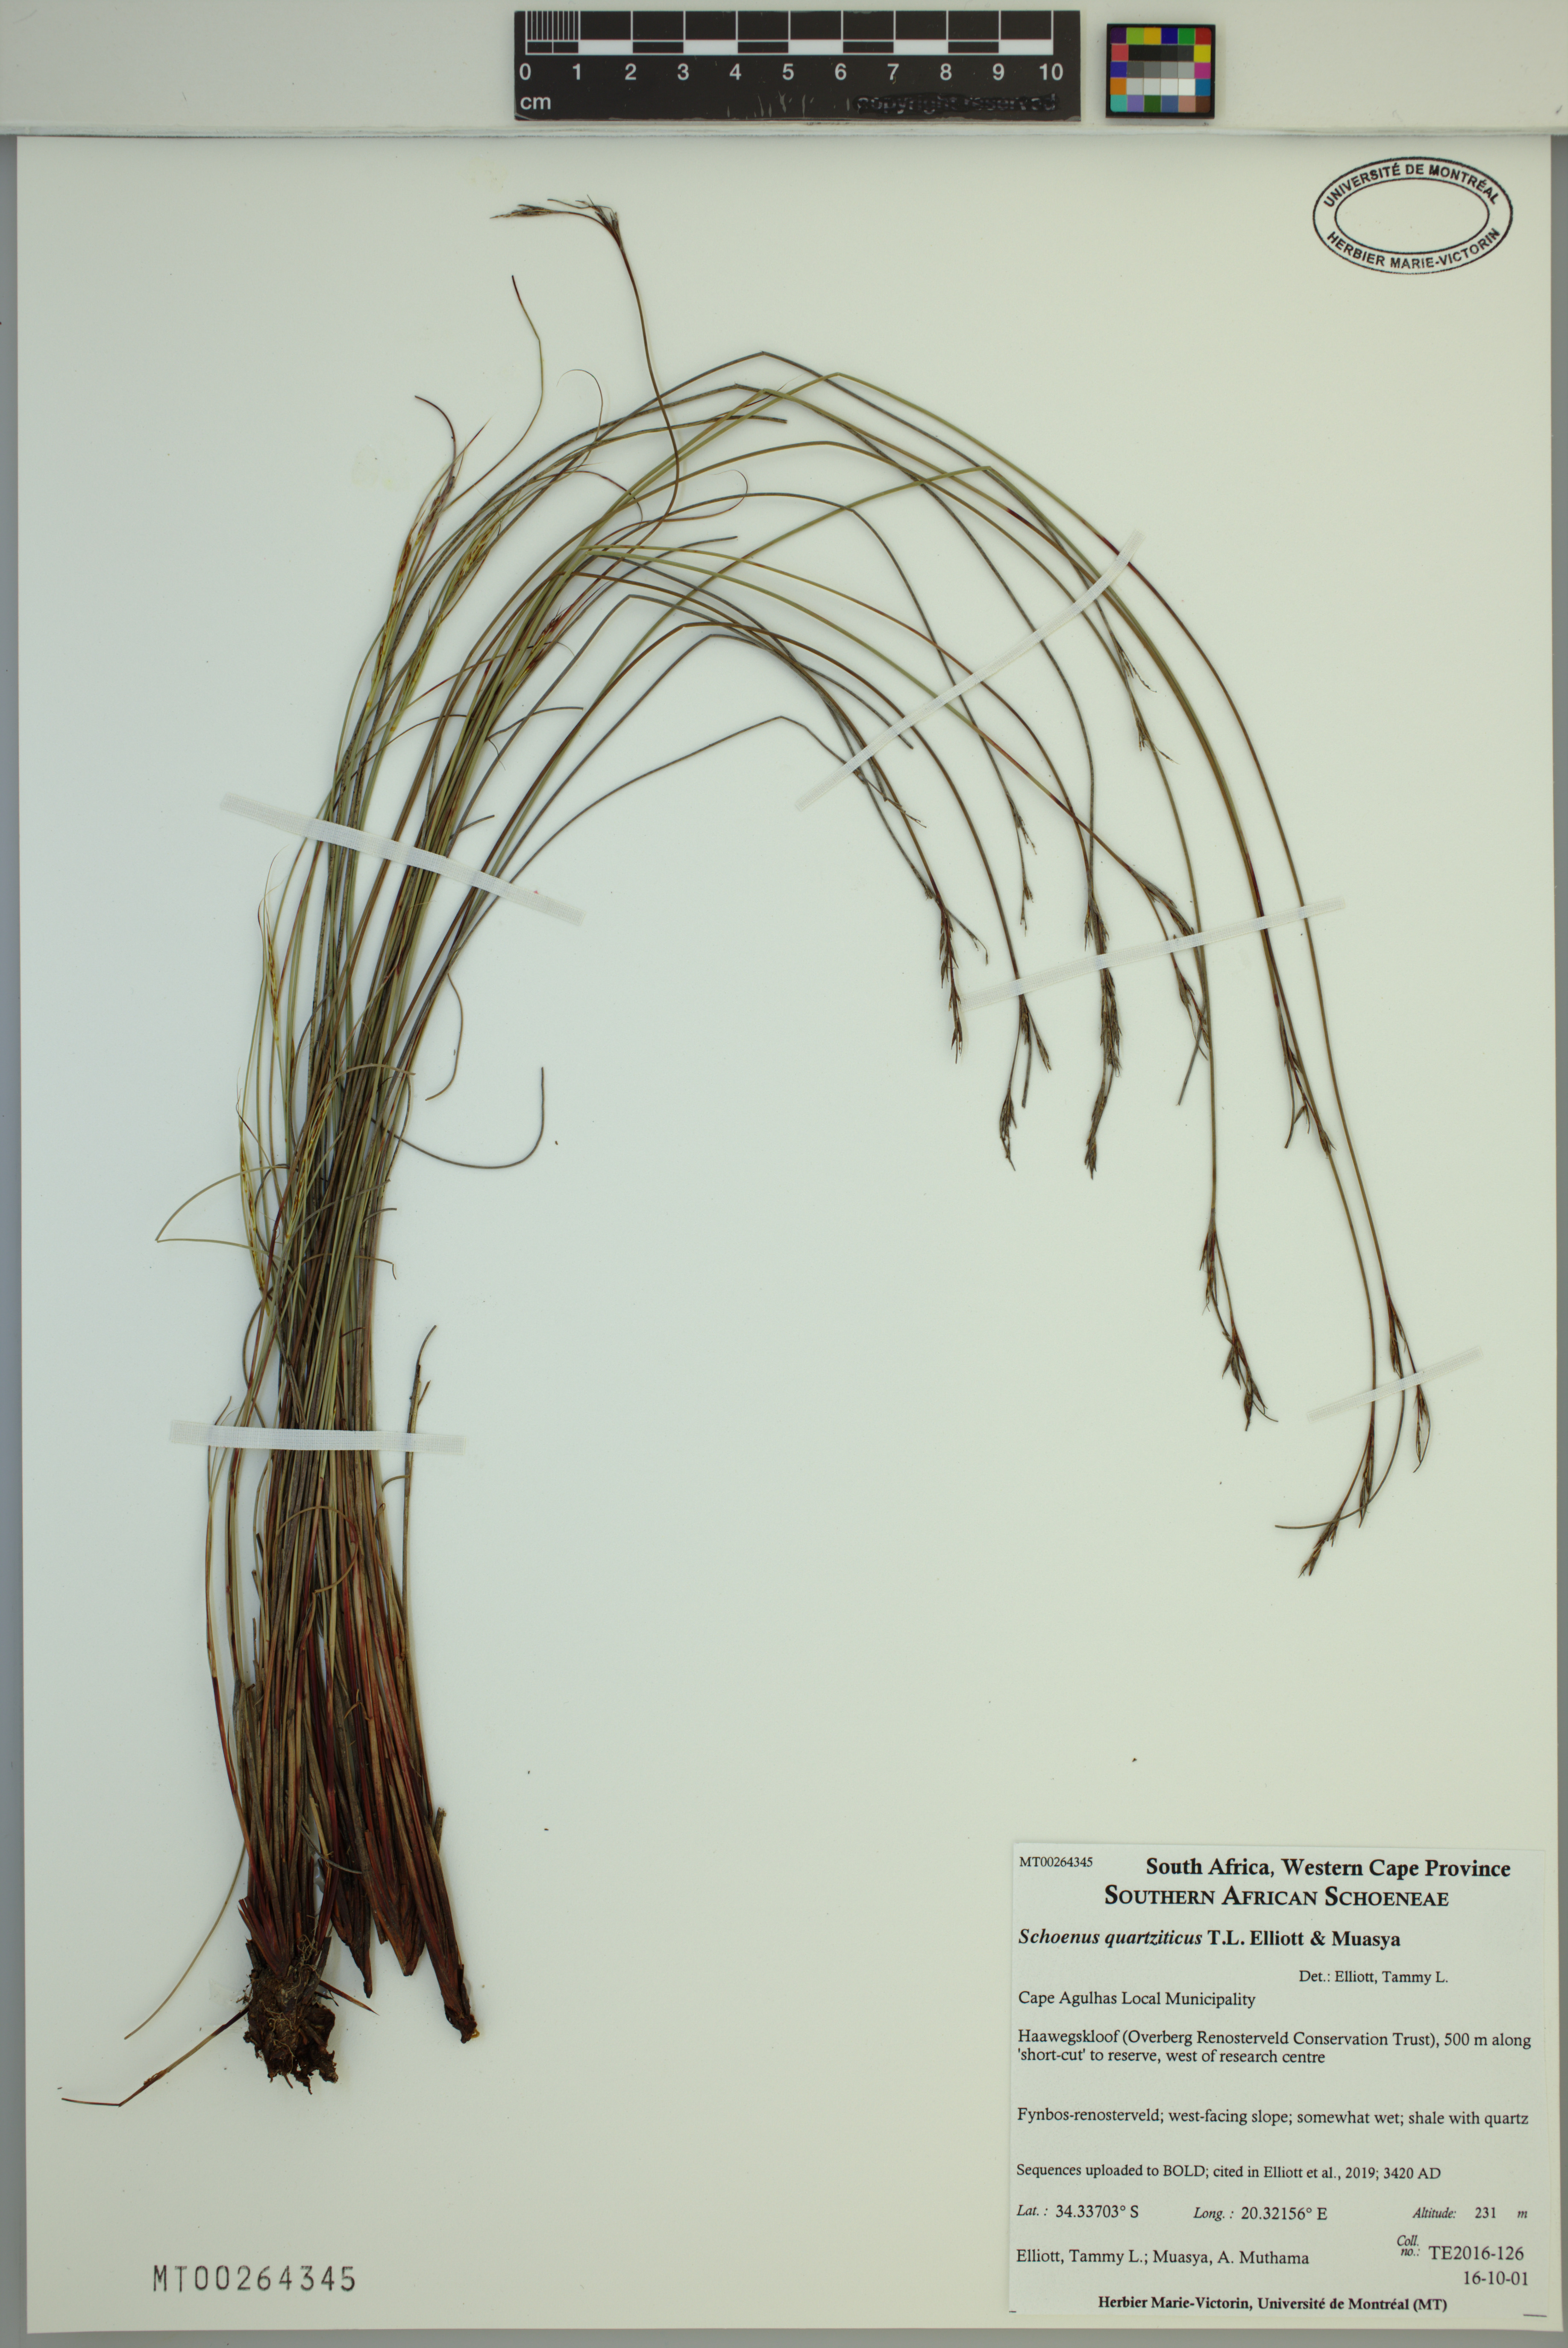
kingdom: Plantae
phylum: Tracheophyta
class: Liliopsida
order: Poales
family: Cyperaceae
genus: Schoenus
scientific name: Schoenus quartziticus
